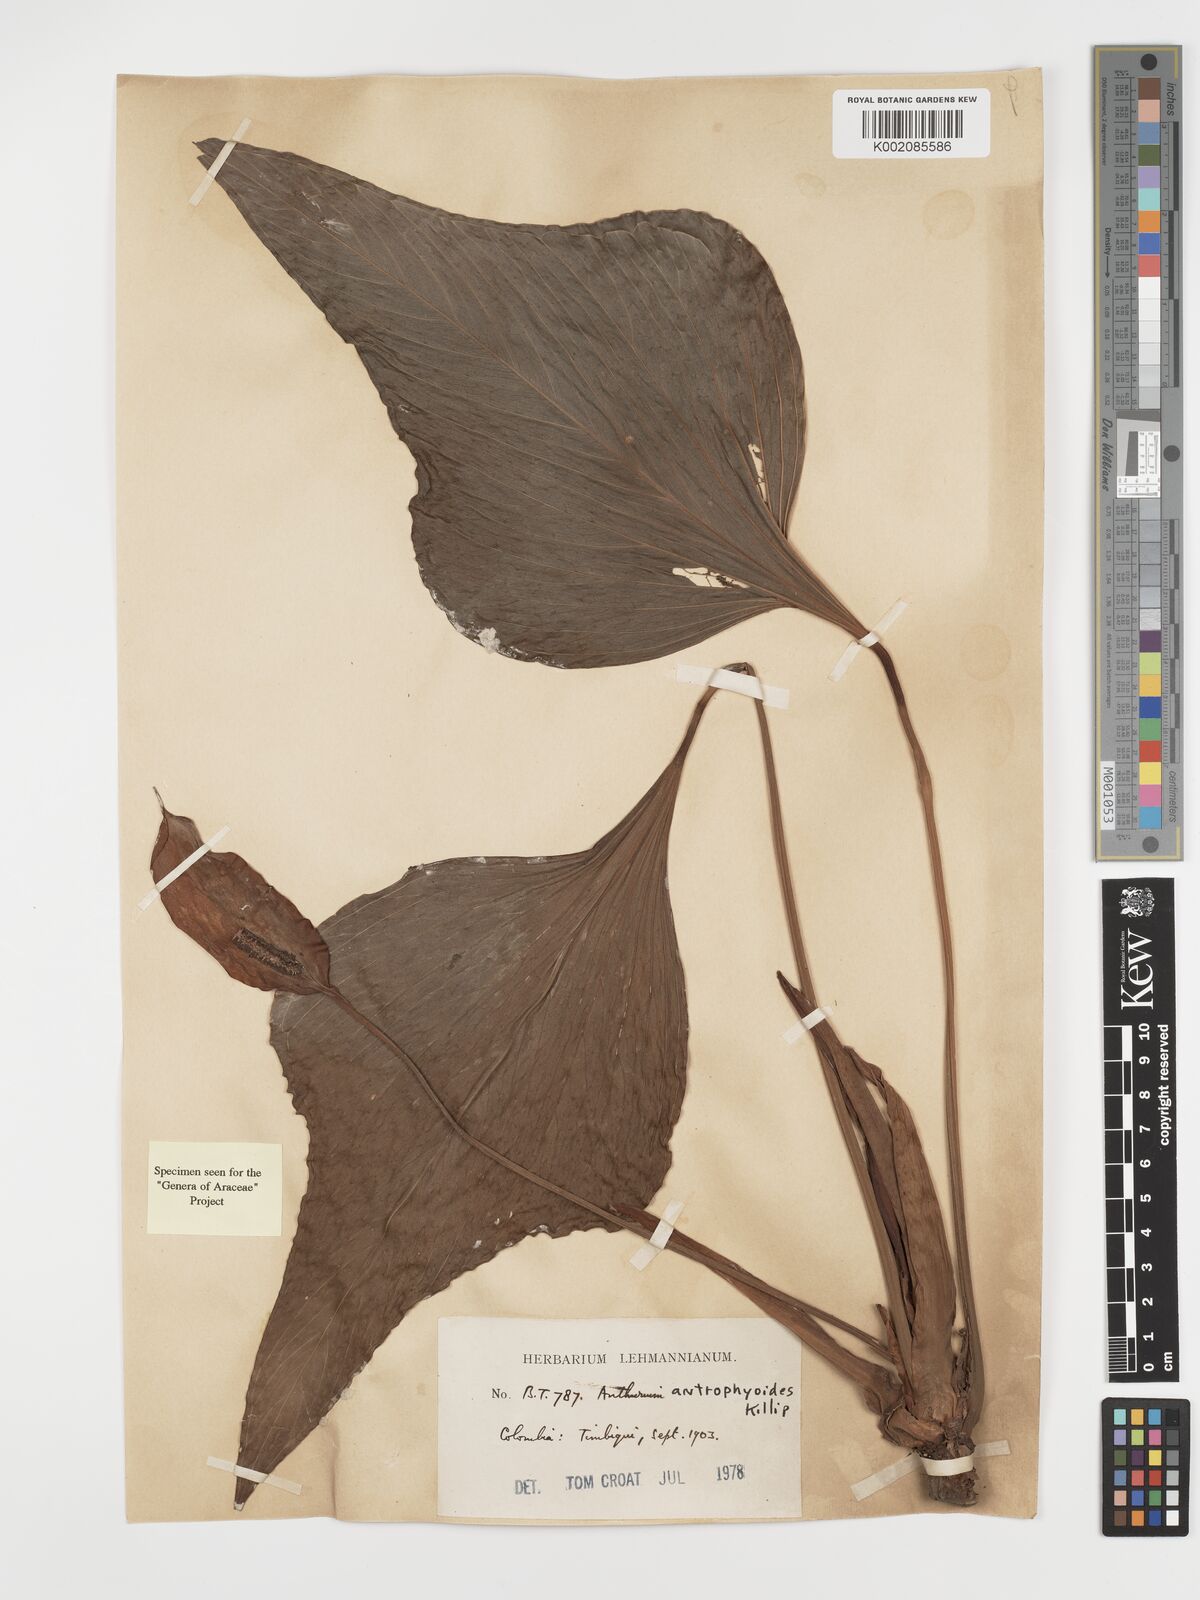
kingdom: Plantae
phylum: Tracheophyta
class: Liliopsida
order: Alismatales
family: Araceae
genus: Anthurium
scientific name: Anthurium antrophyoides
